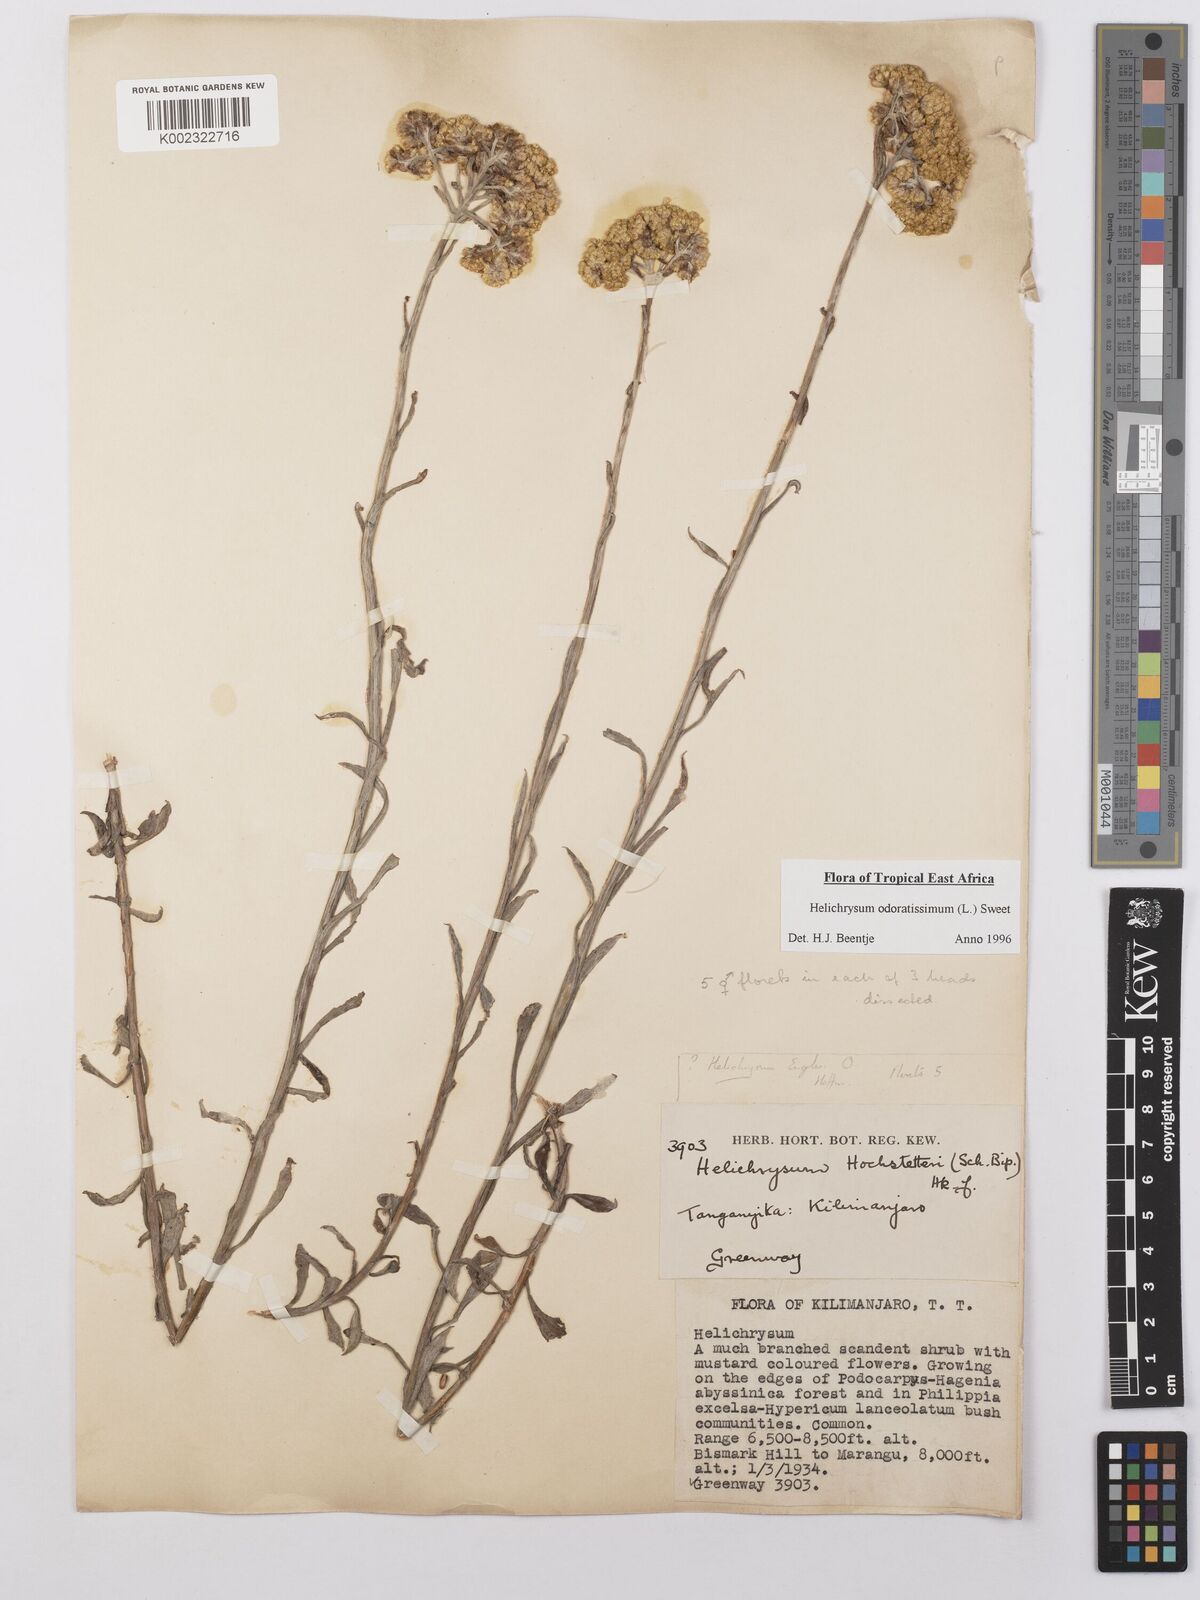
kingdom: Plantae
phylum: Tracheophyta
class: Magnoliopsida
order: Asterales
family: Asteraceae
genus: Helichrysum
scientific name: Helichrysum odoratissimum
